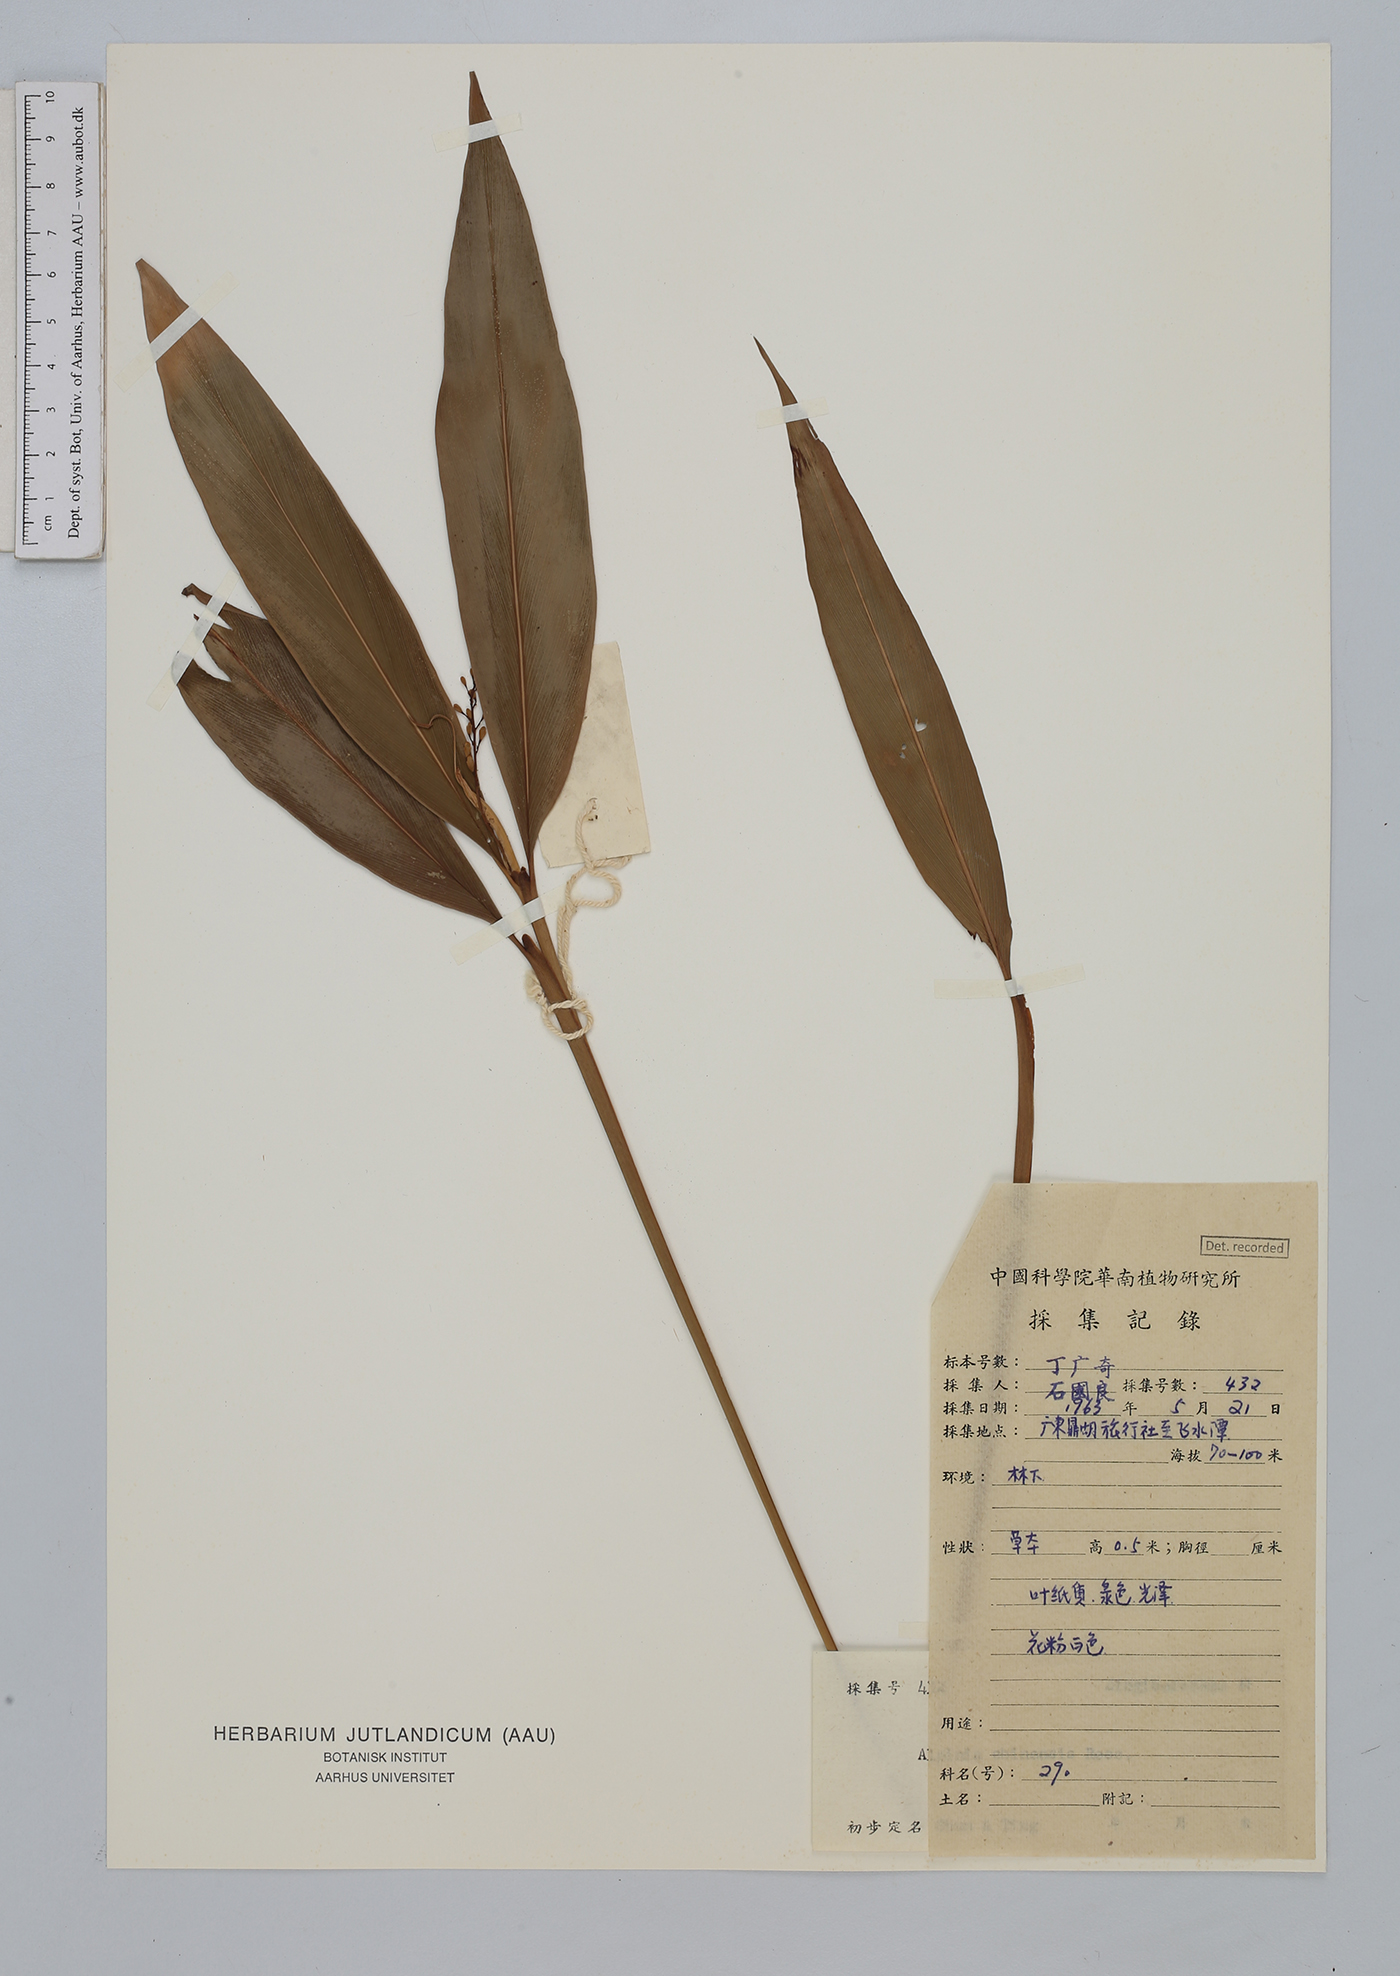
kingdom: Plantae
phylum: Tracheophyta
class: Liliopsida
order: Zingiberales
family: Zingiberaceae
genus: Alpinia
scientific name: Alpinia chinensis
